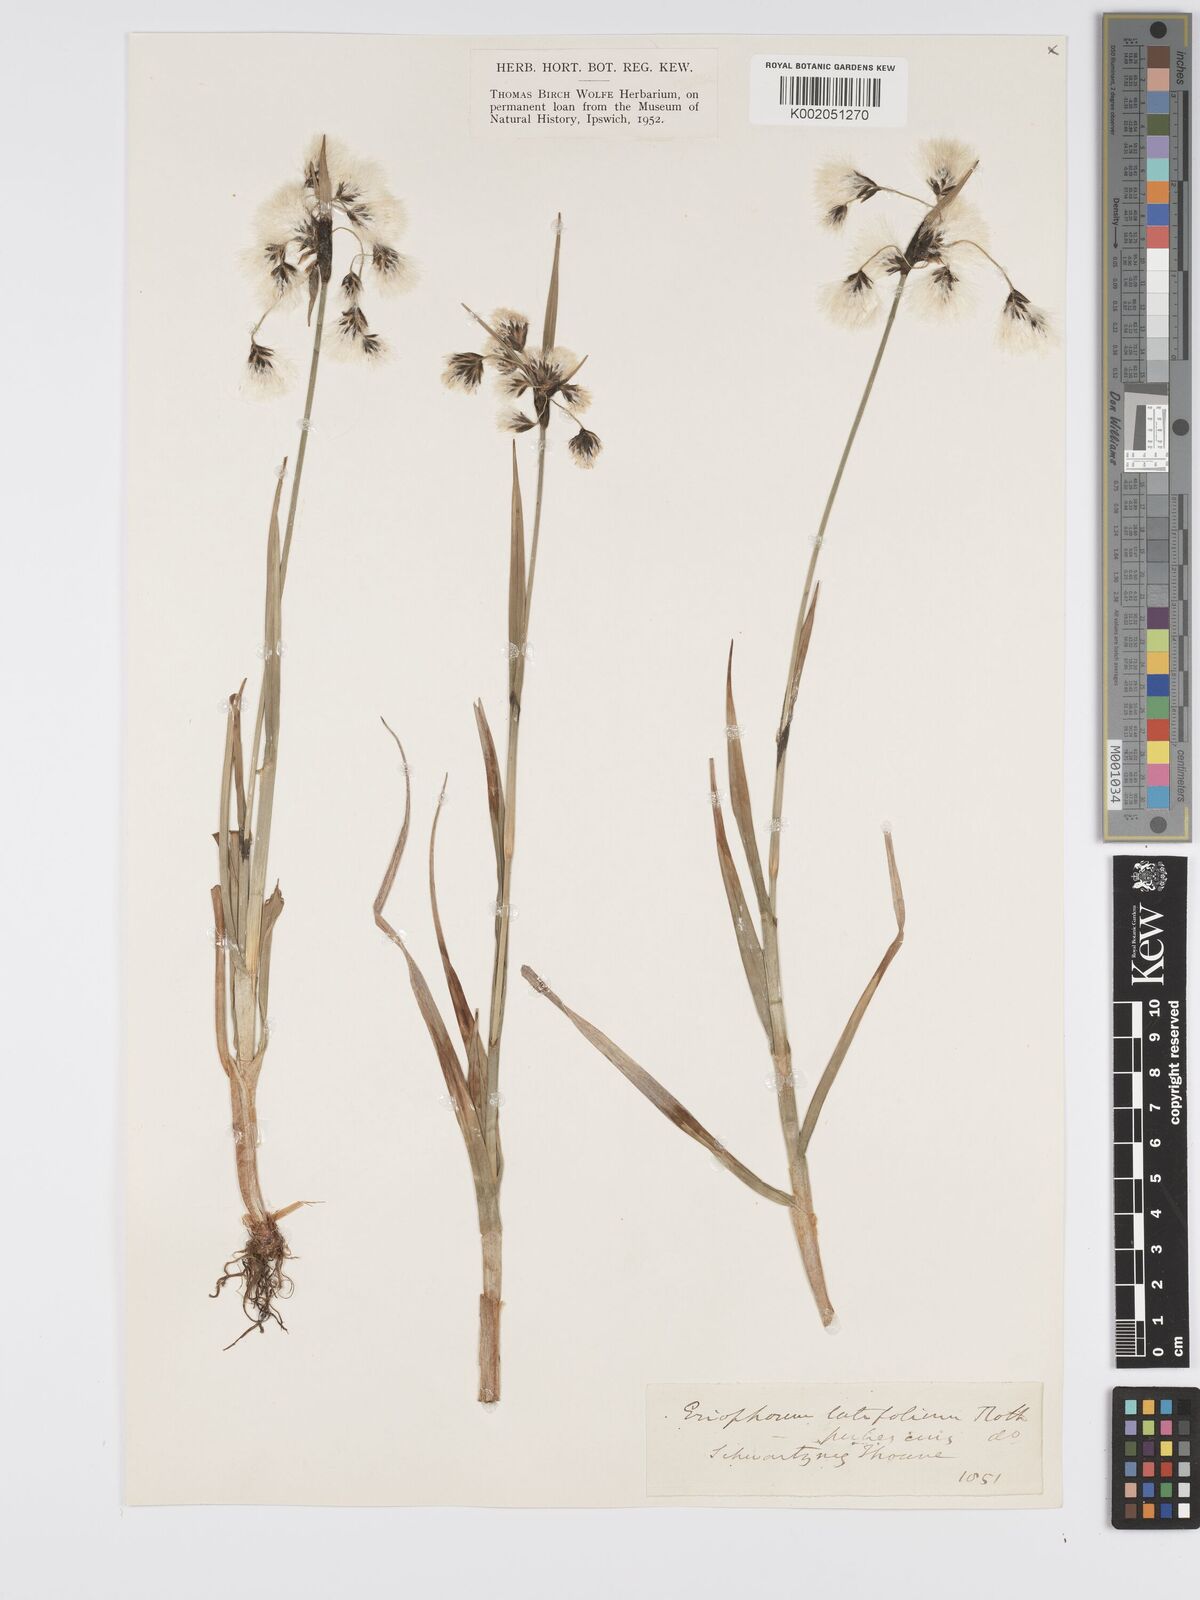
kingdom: Plantae
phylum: Tracheophyta
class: Liliopsida
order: Poales
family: Cyperaceae
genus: Eriophorum
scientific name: Eriophorum latifolium
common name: Broad-leaved cottongrass
